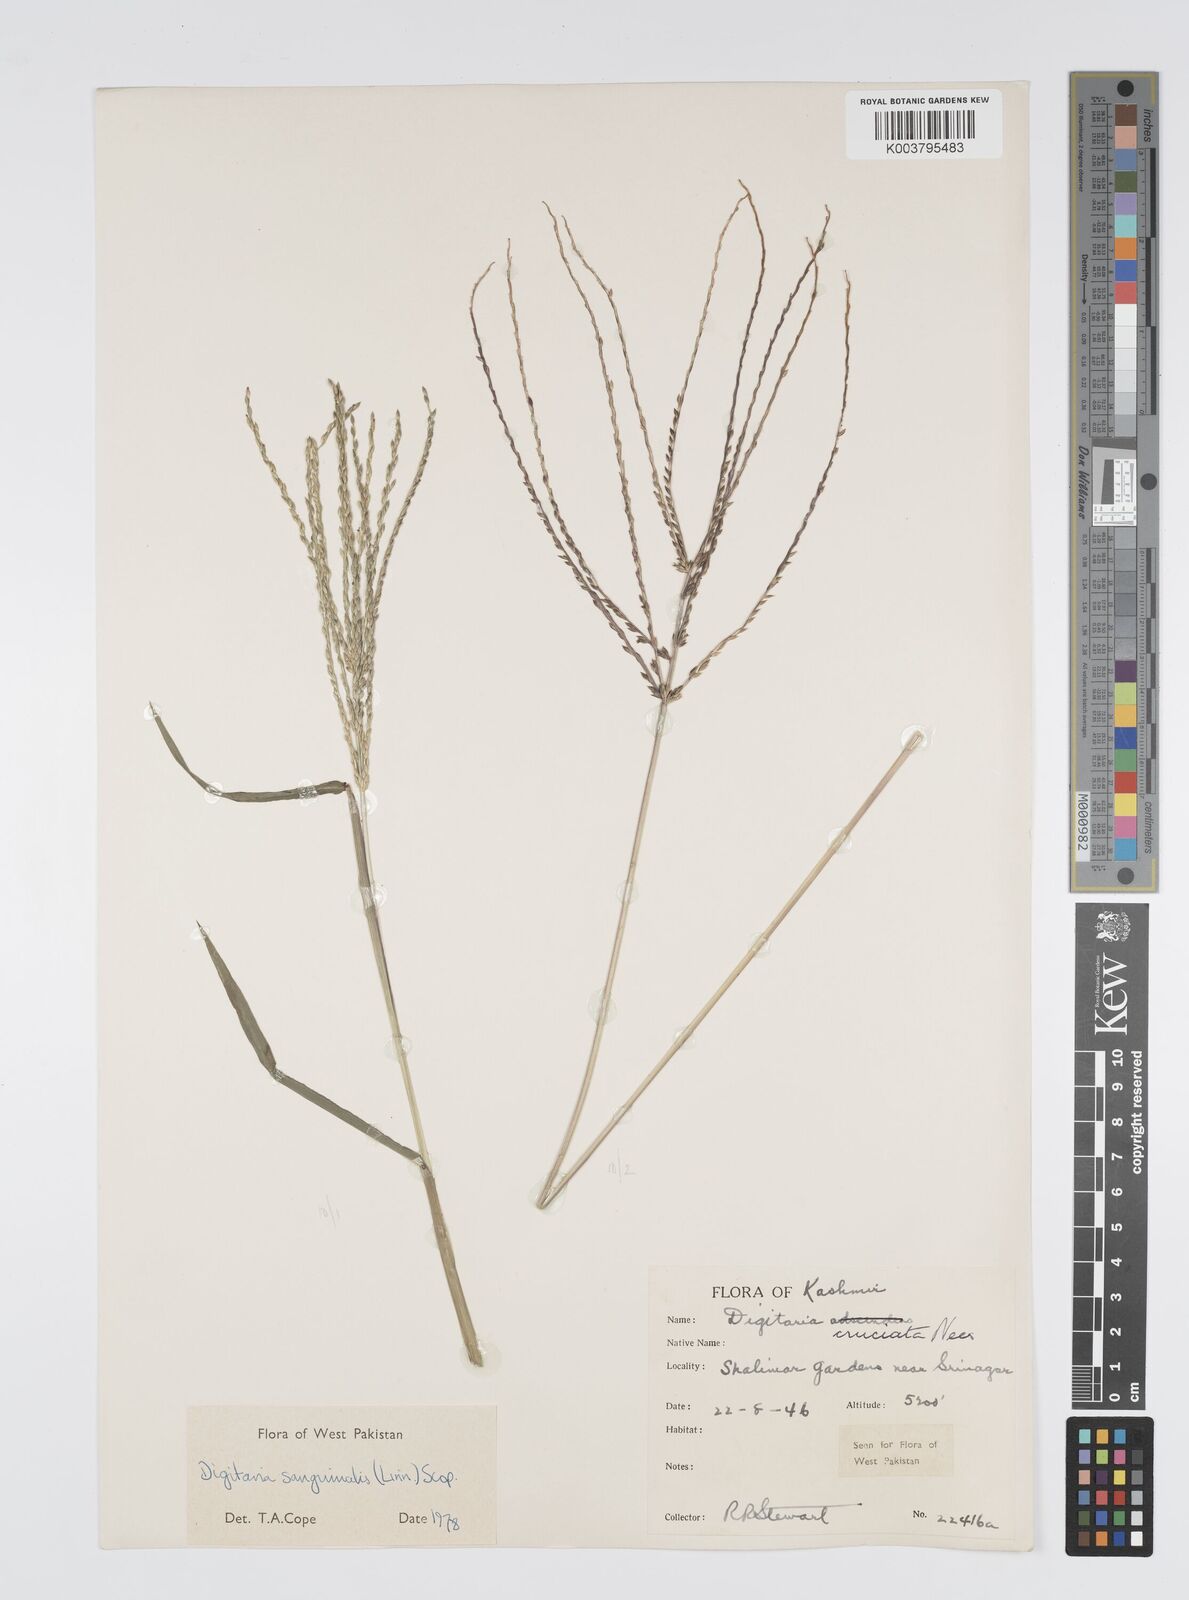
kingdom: Plantae
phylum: Tracheophyta
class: Liliopsida
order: Poales
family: Poaceae
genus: Digitaria
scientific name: Digitaria sanguinalis
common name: Hairy crabgrass
